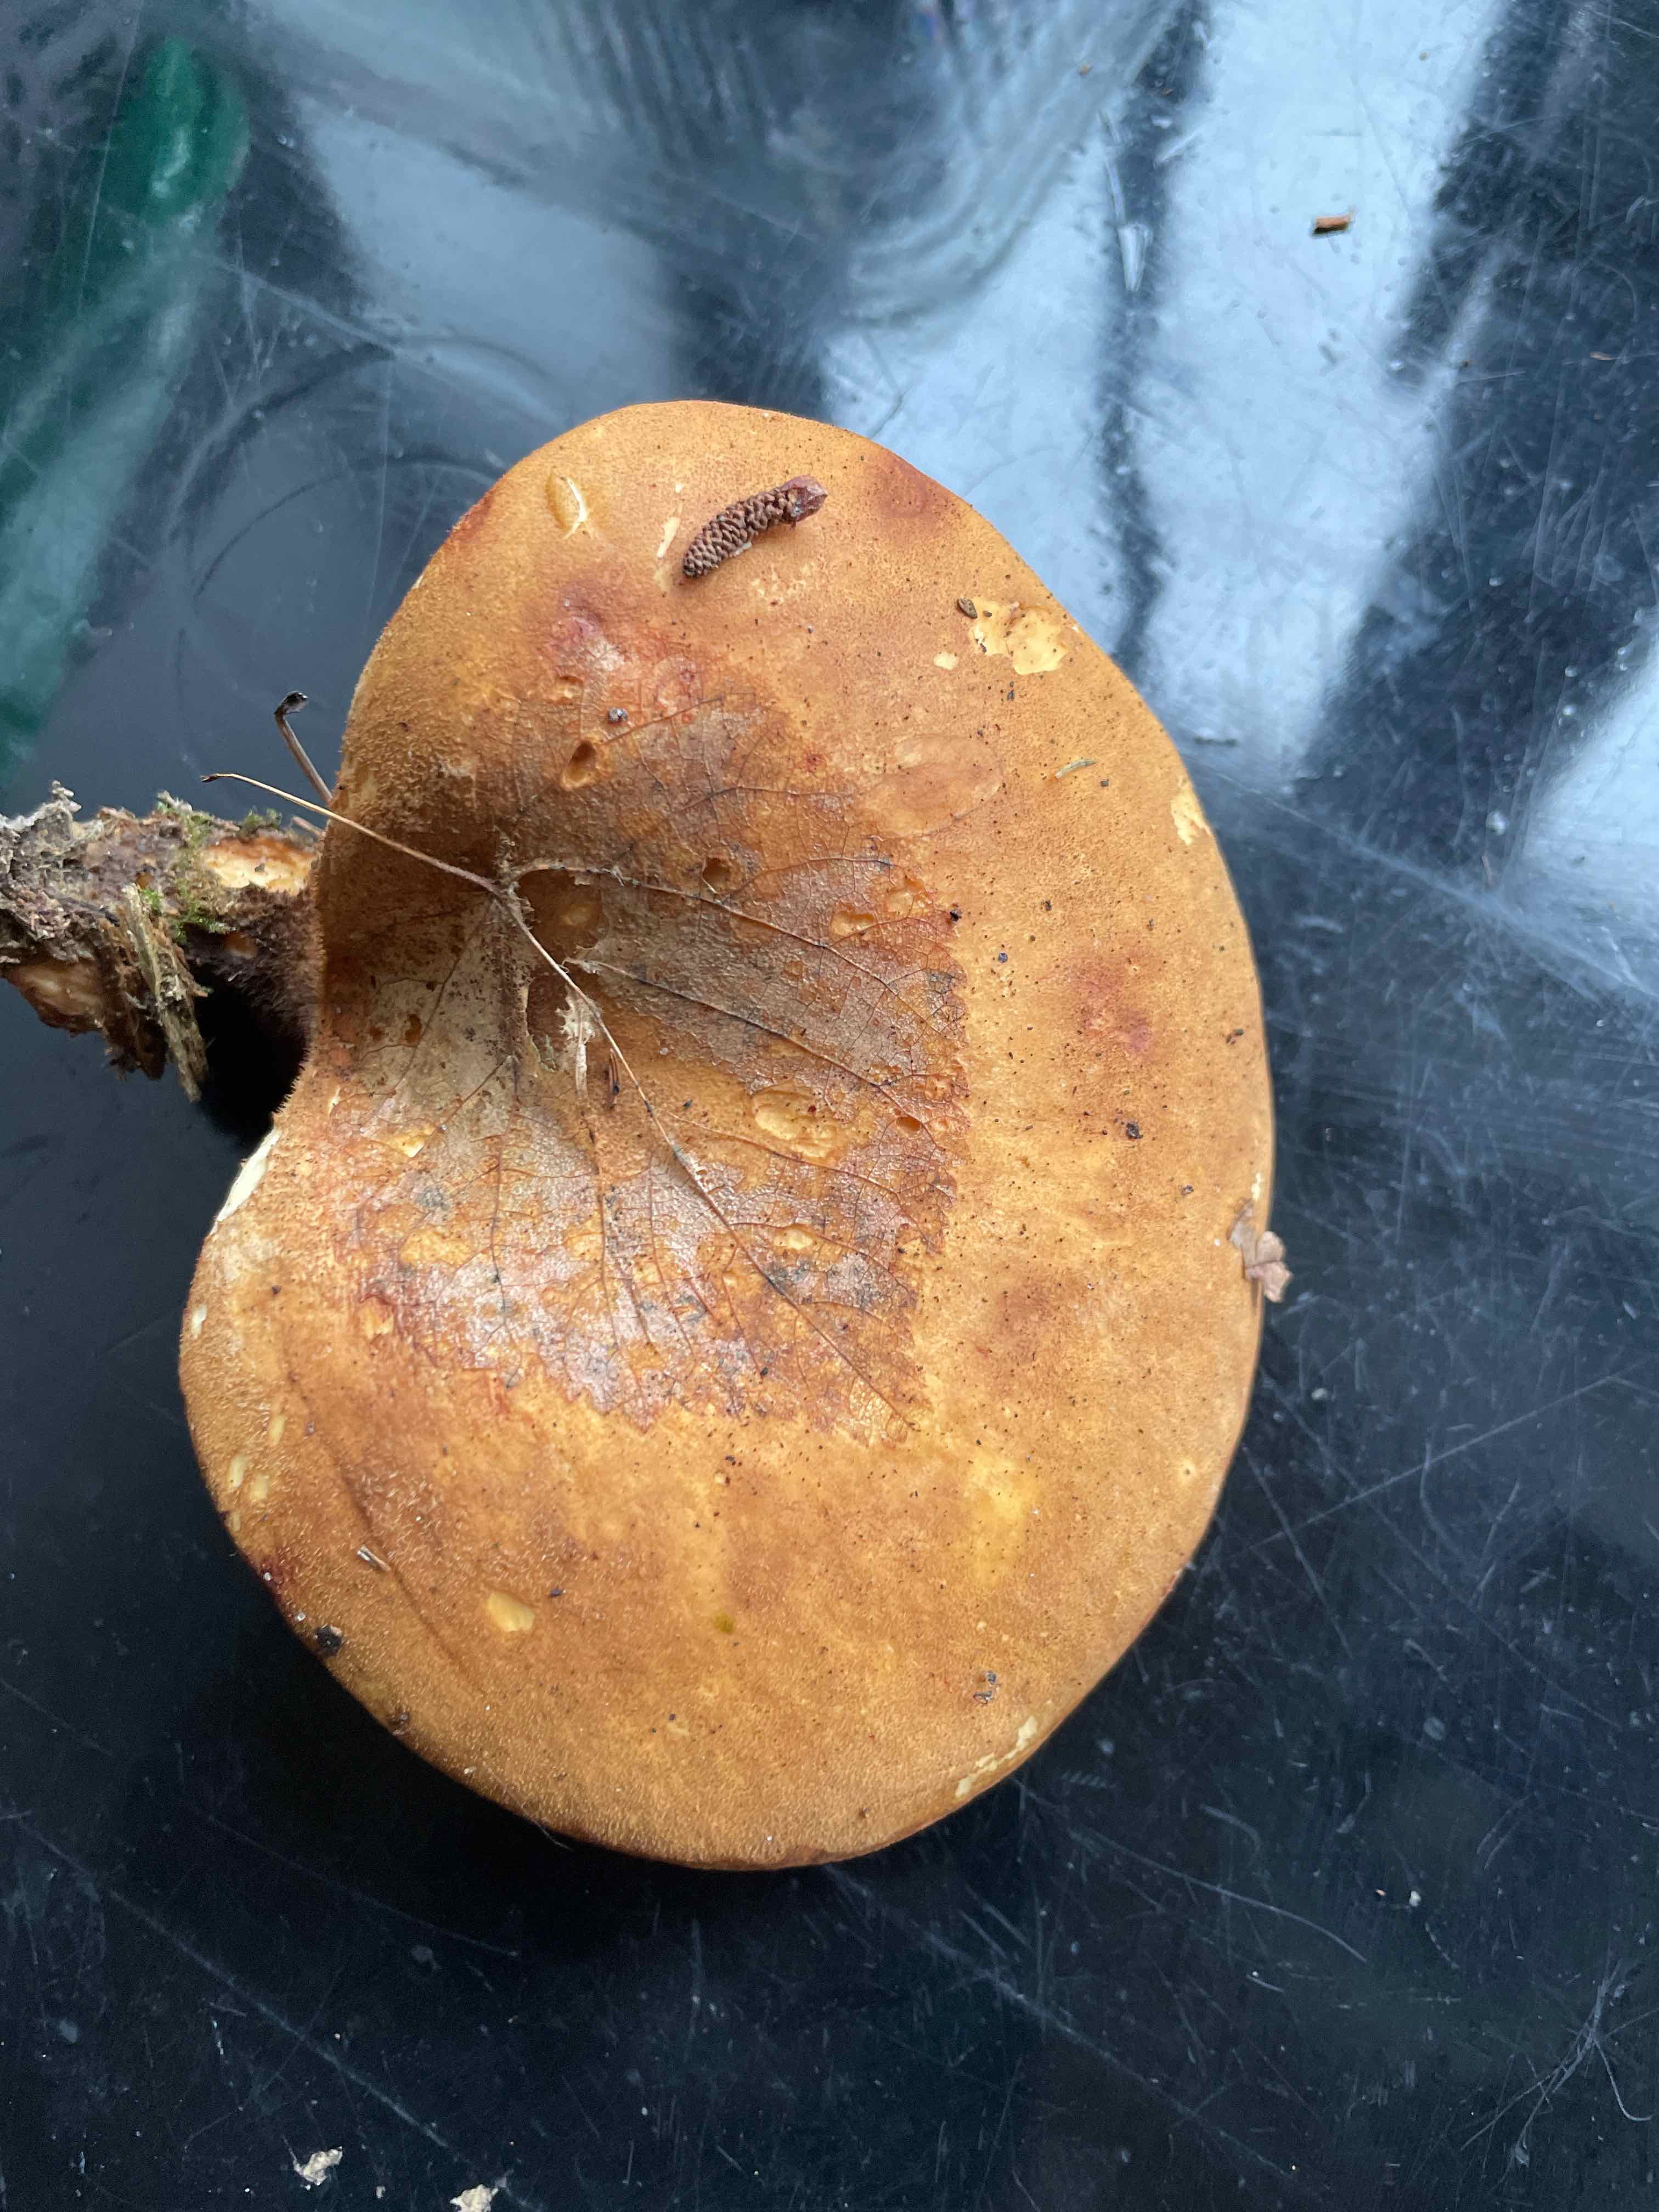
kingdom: Fungi
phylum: Basidiomycota
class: Agaricomycetes
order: Boletales
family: Tapinellaceae
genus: Tapinella
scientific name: Tapinella atrotomentosa
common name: sortfiltet viftesvamp
